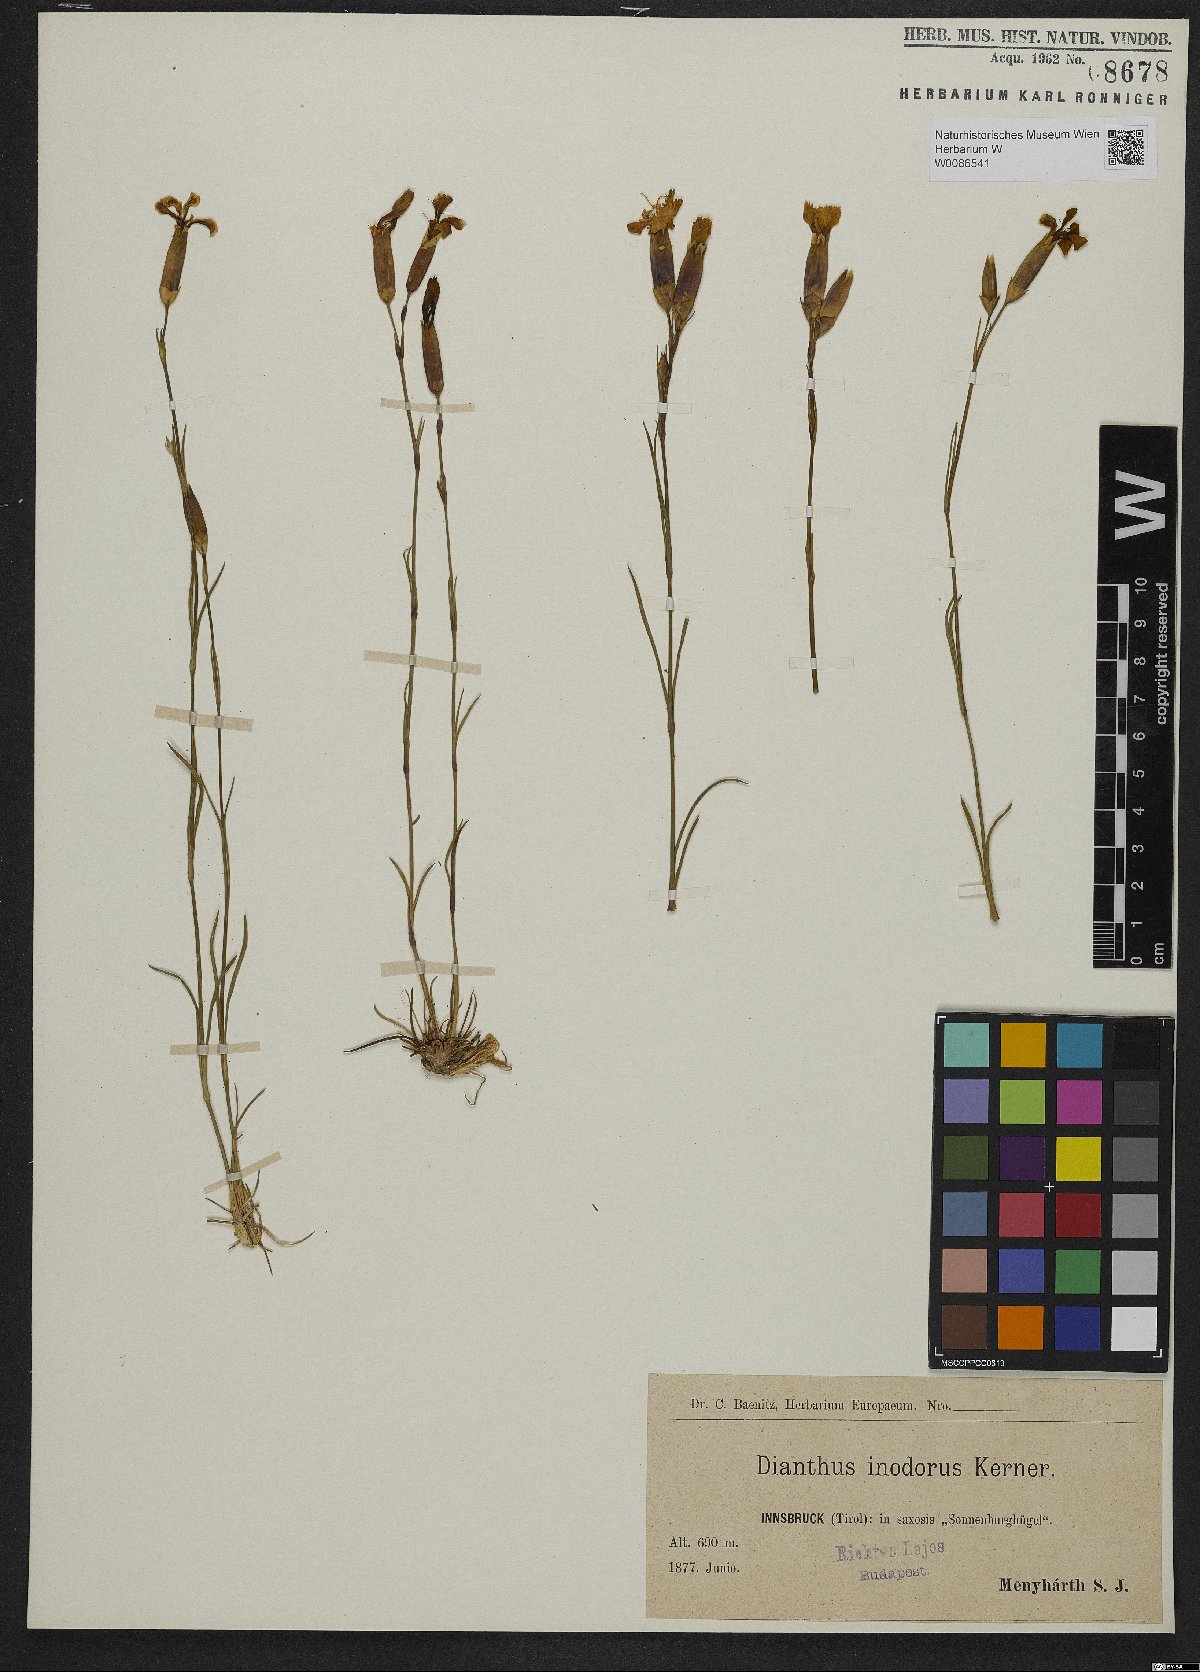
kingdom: Plantae
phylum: Tracheophyta
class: Magnoliopsida
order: Caryophyllales
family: Caryophyllaceae
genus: Dianthus
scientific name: Dianthus sylvestris
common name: Wood pink
